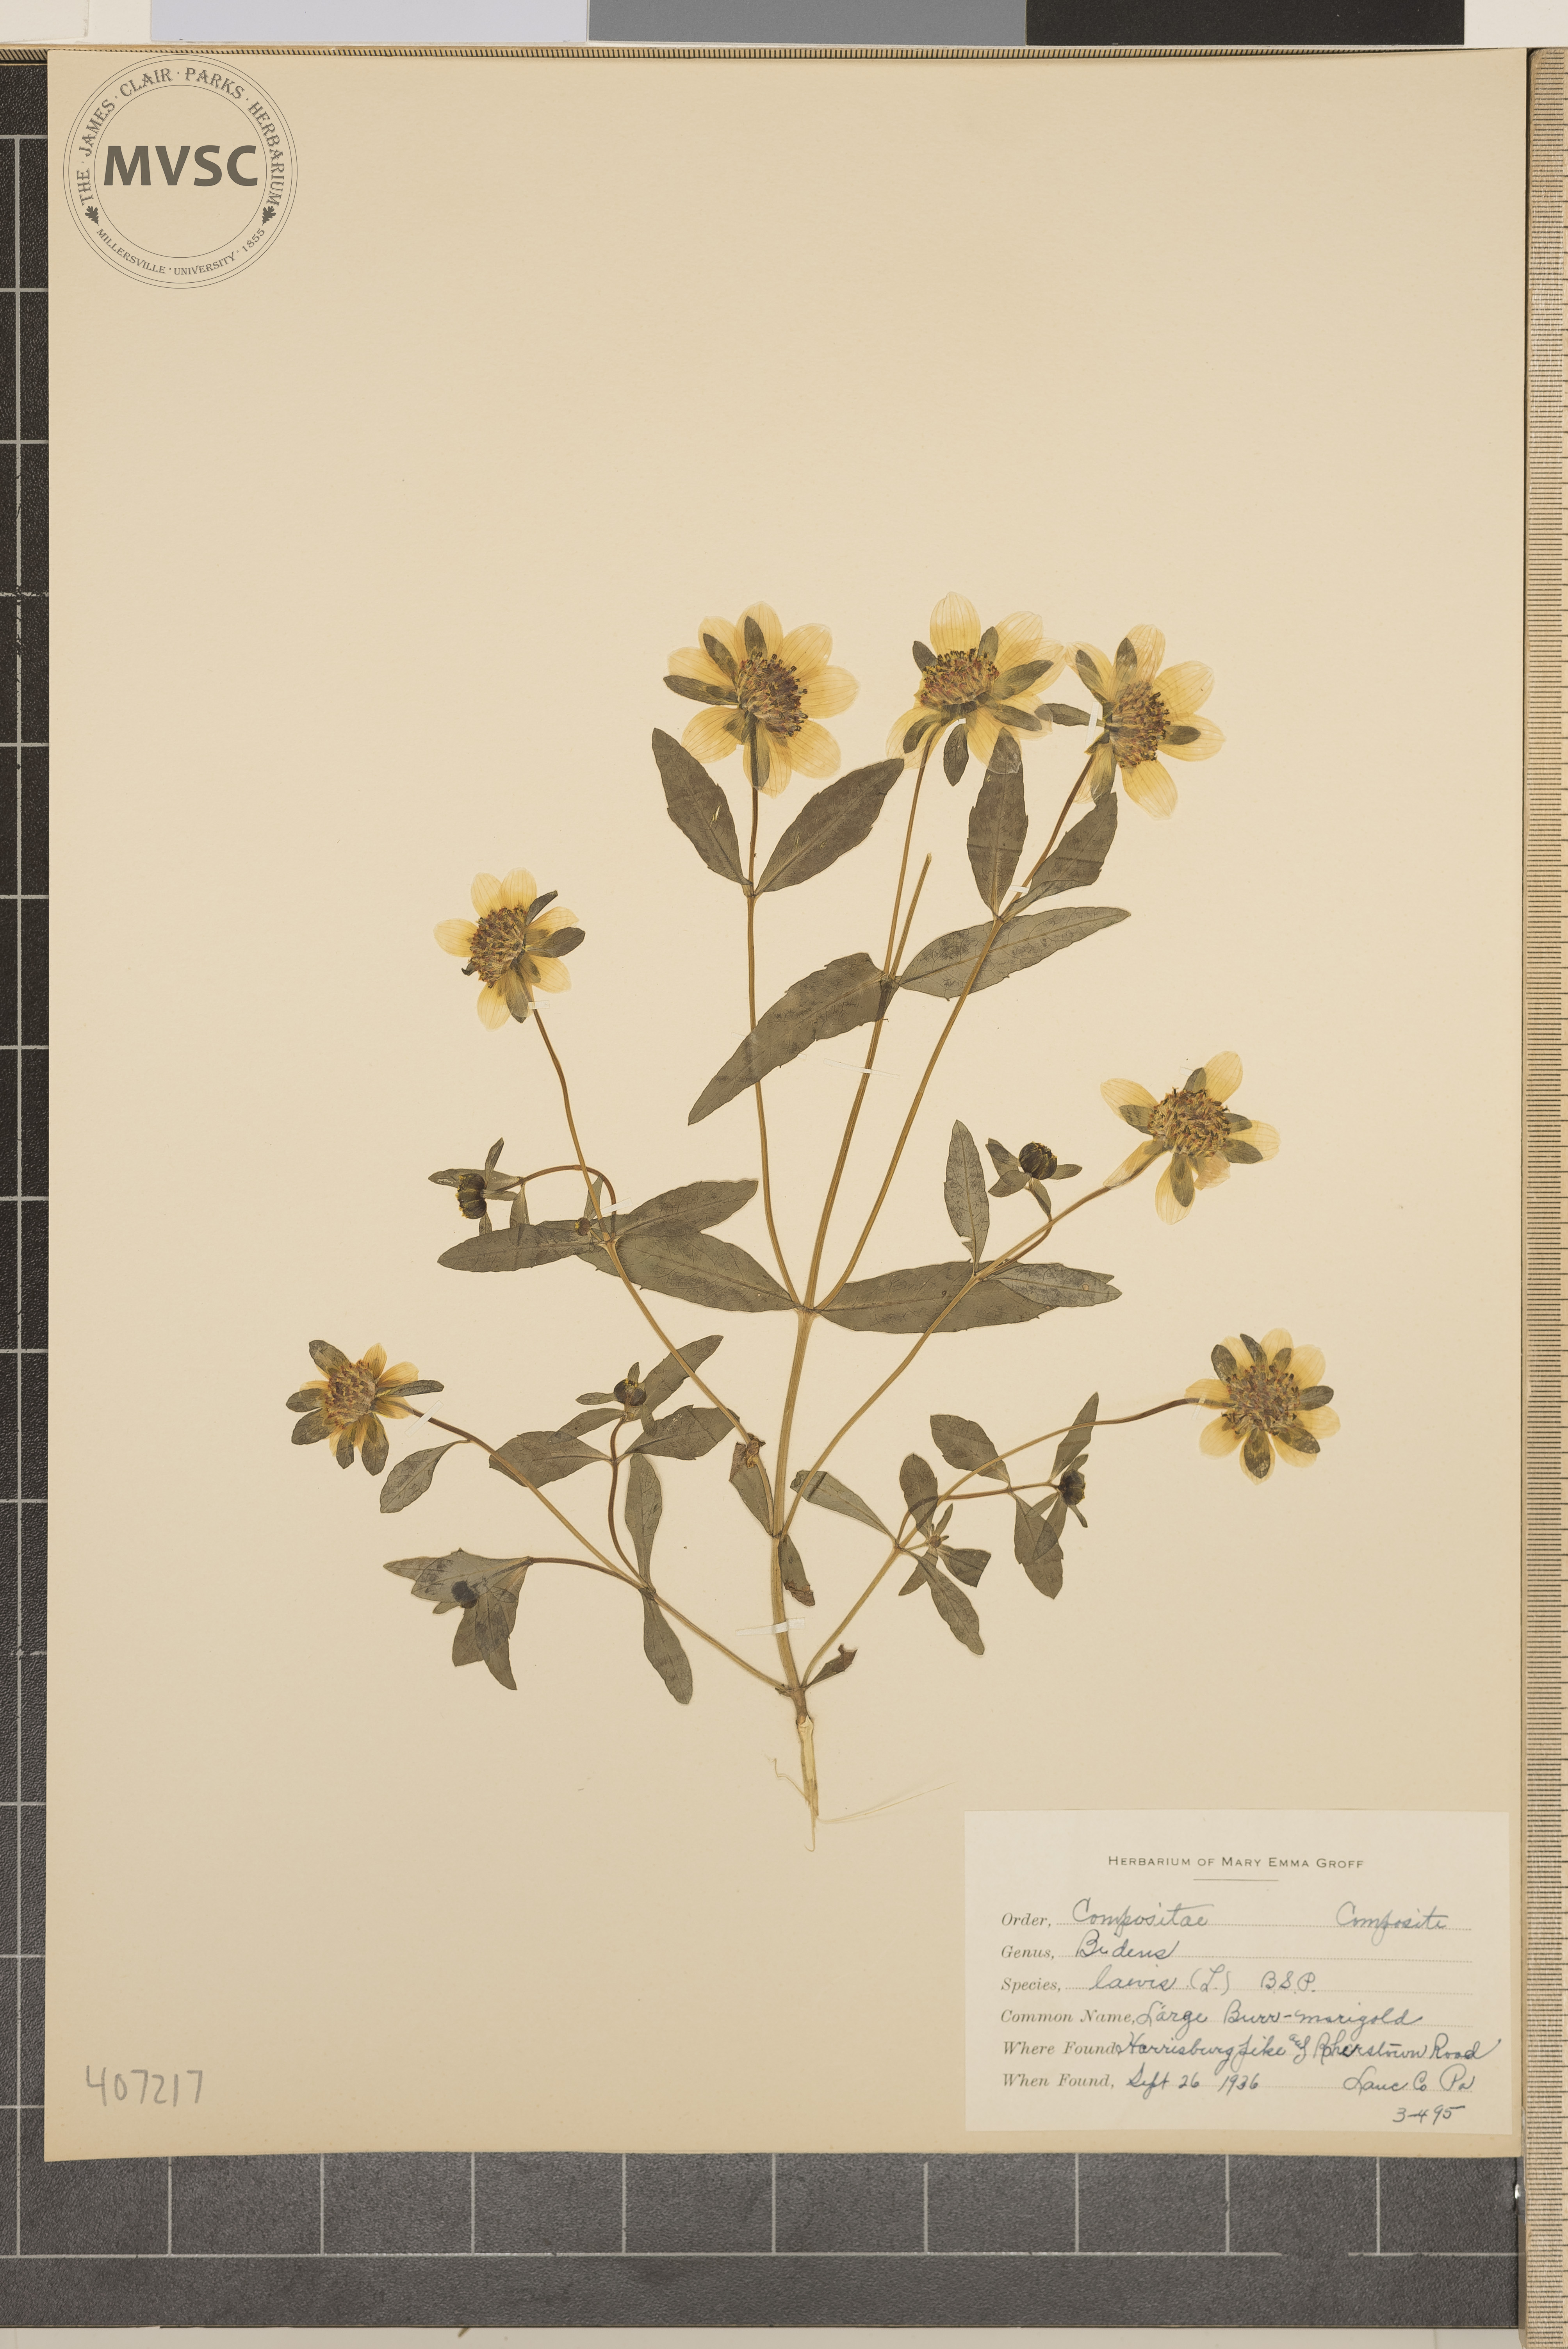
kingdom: Plantae
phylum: Tracheophyta
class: Magnoliopsida
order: Asterales
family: Asteraceae
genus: Bidens
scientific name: Bidens laevis
